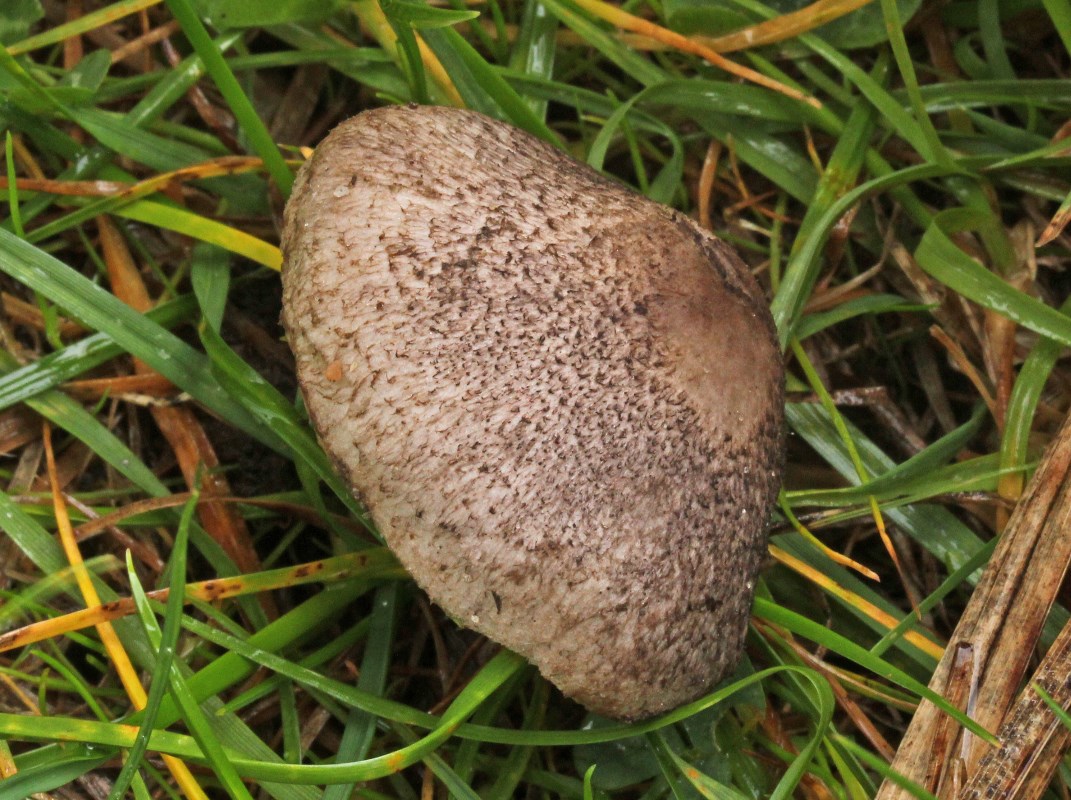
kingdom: Fungi
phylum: Basidiomycota
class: Agaricomycetes
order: Agaricales
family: Tricholomataceae
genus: Tricholoma
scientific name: Tricholoma
